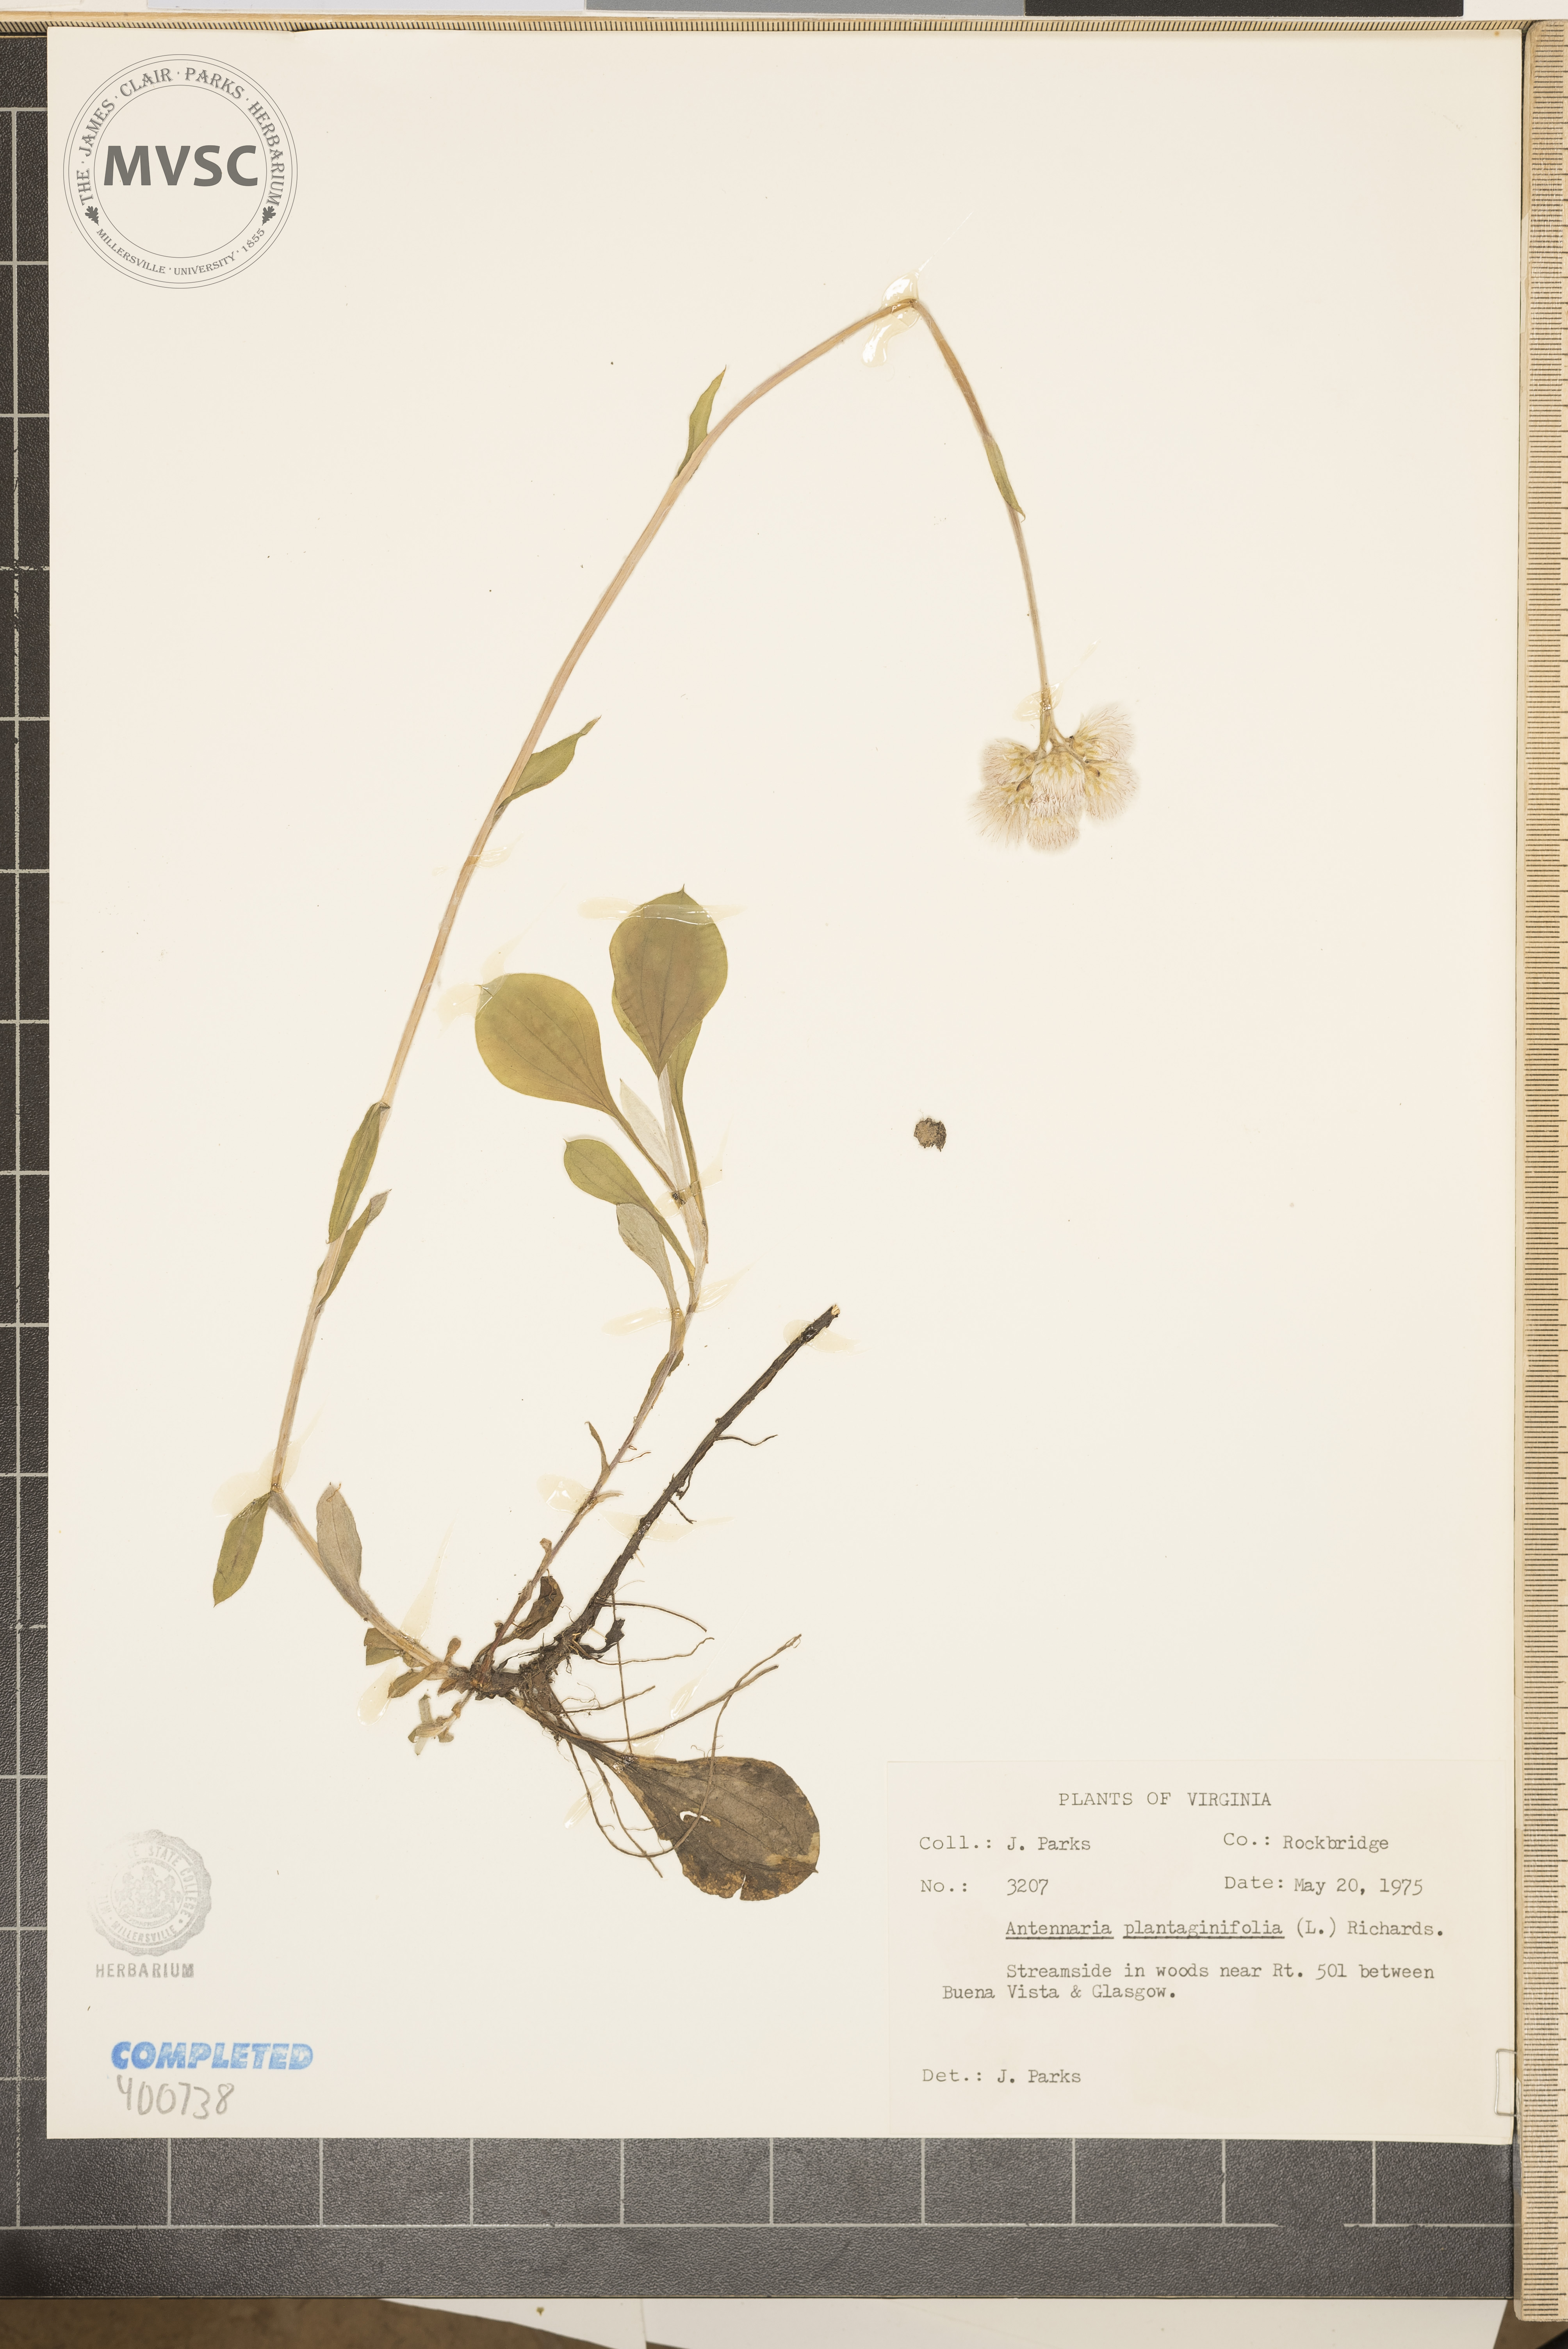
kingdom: Plantae
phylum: Tracheophyta
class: Magnoliopsida
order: Asterales
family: Asteraceae
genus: Antennaria
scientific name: Antennaria plantaginifolia
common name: pussyfoot
